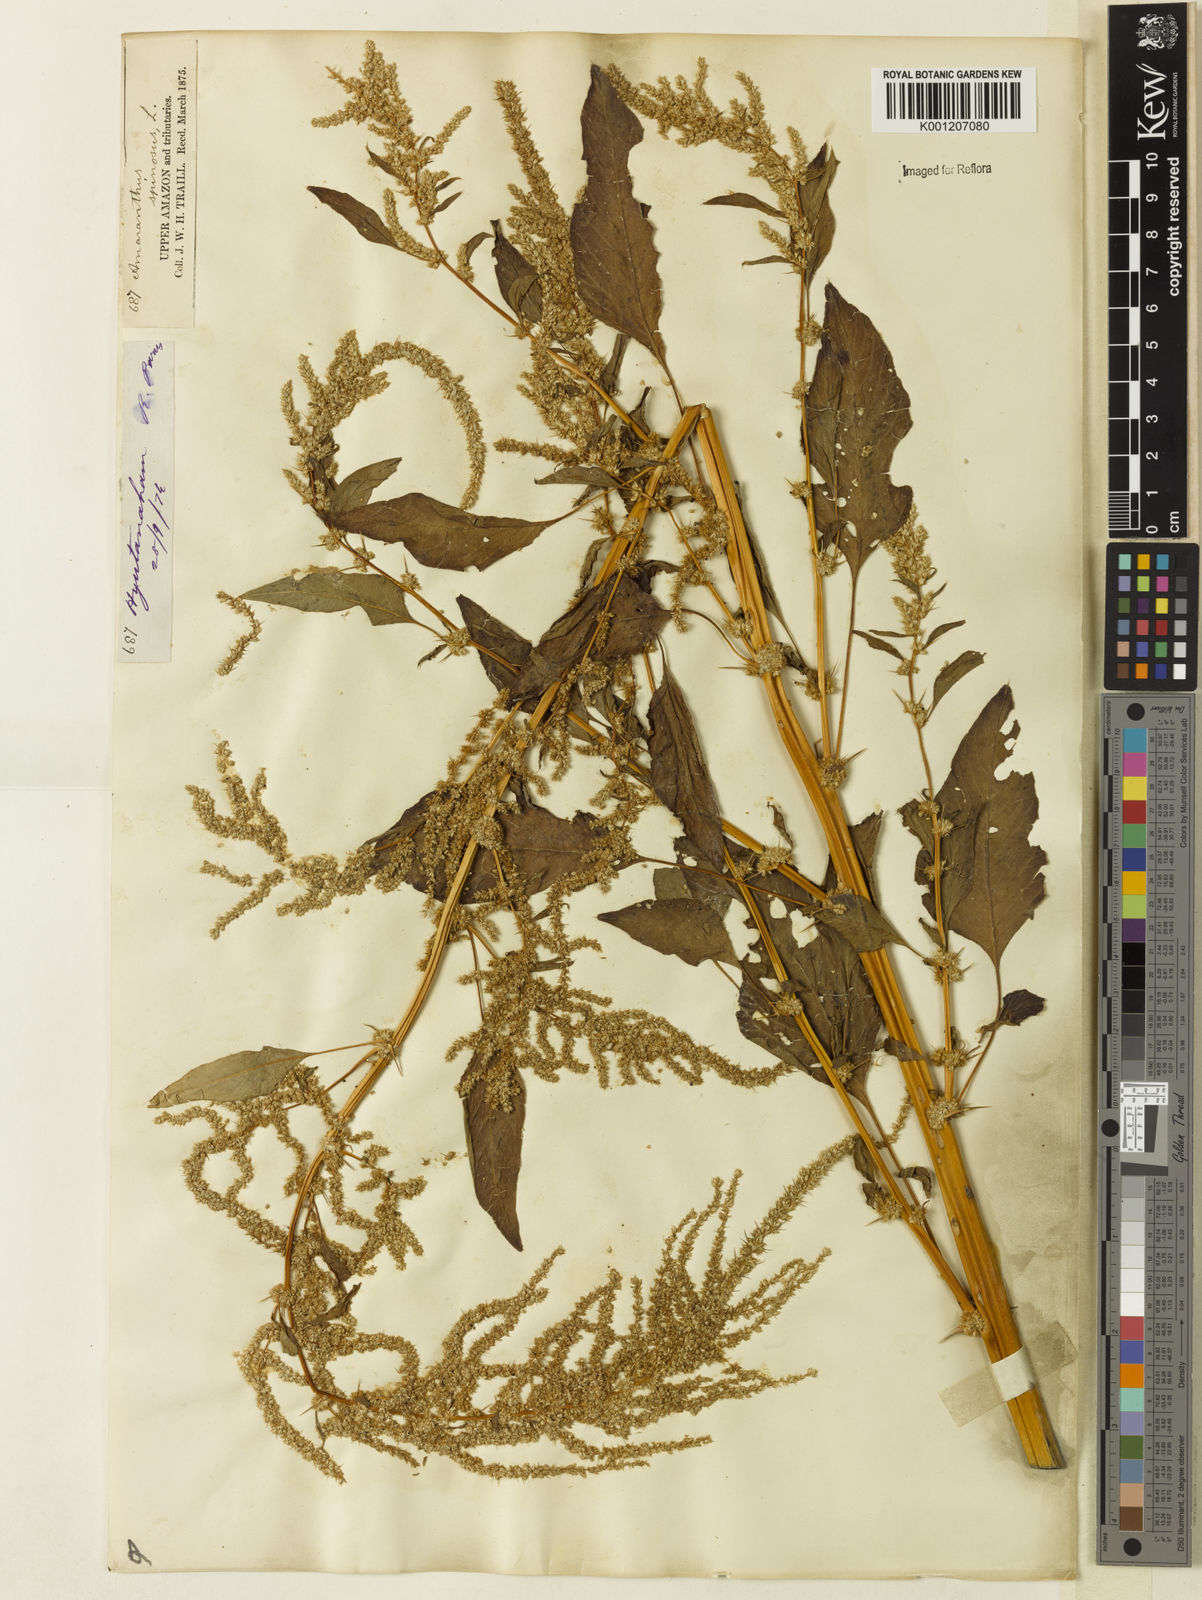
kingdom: Plantae
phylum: Tracheophyta
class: Magnoliopsida
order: Caryophyllales
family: Amaranthaceae
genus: Amaranthus
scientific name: Amaranthus spinosus
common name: Spiny amaranth
